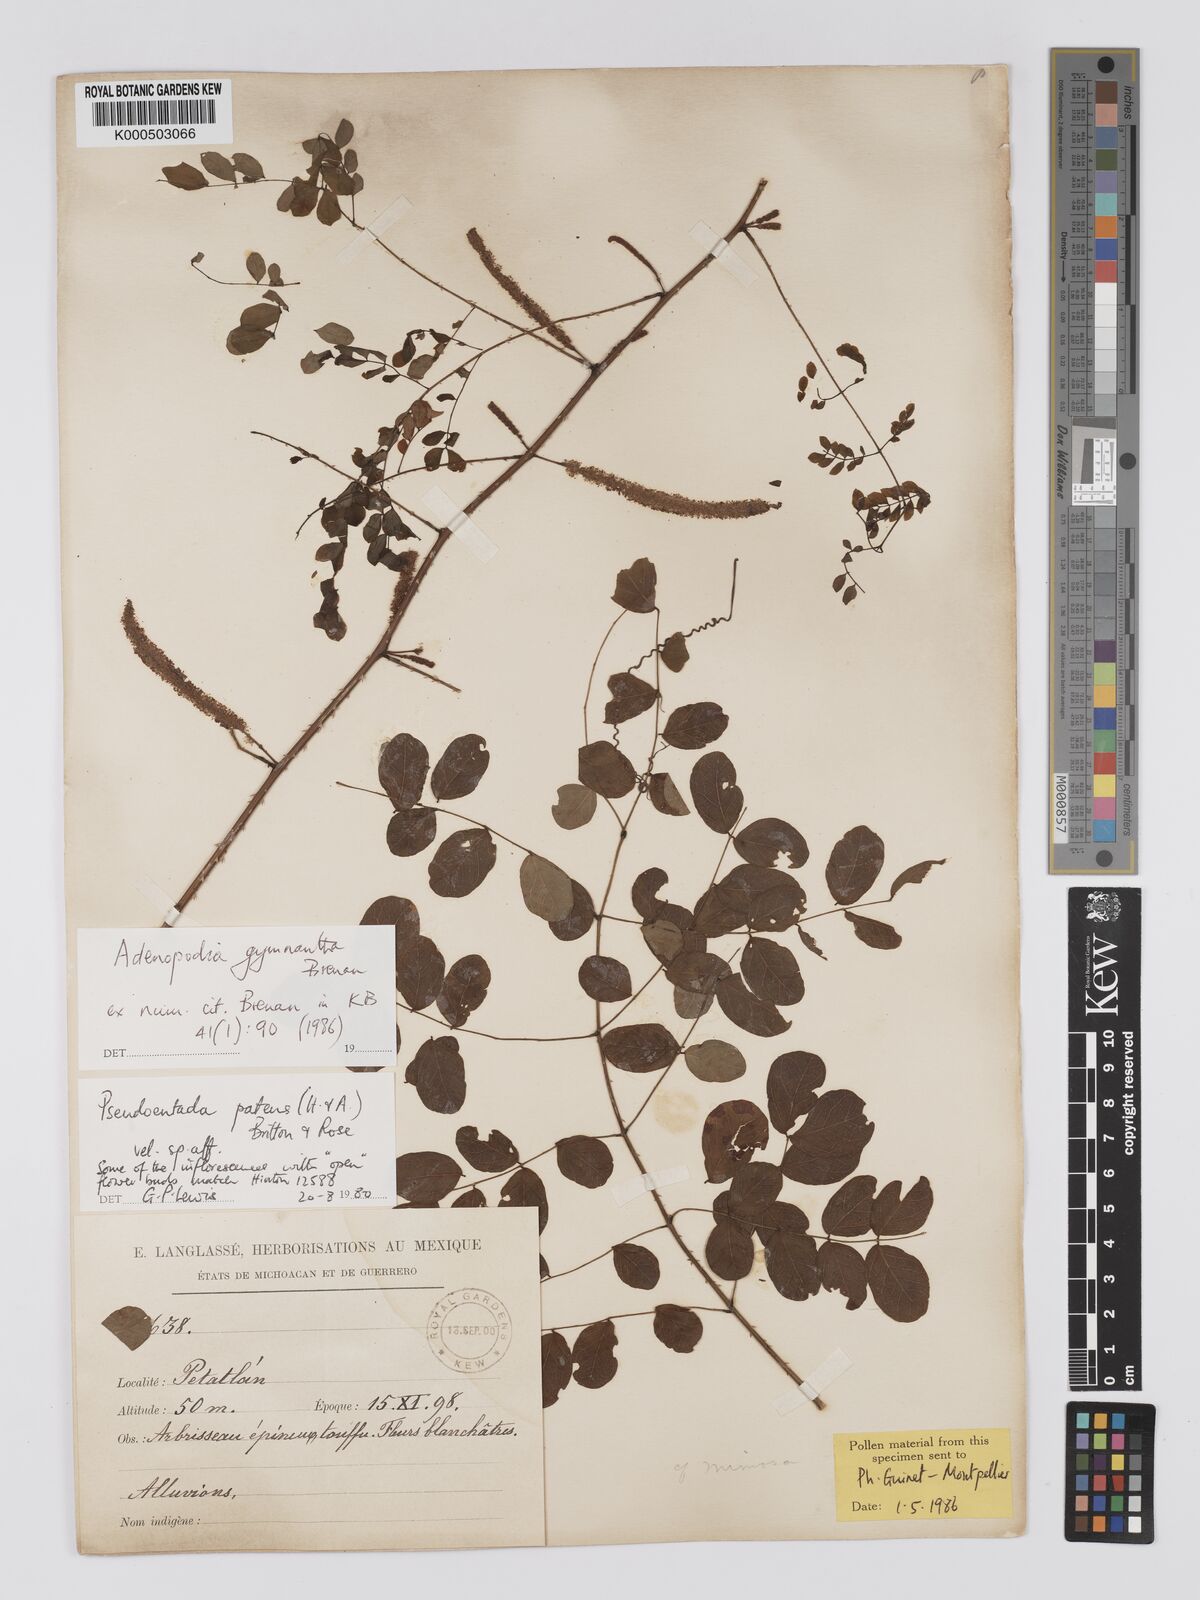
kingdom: Plantae
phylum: Tracheophyta
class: Magnoliopsida
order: Fabales
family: Fabaceae
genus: Adenopodia
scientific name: Adenopodia gymnantha
